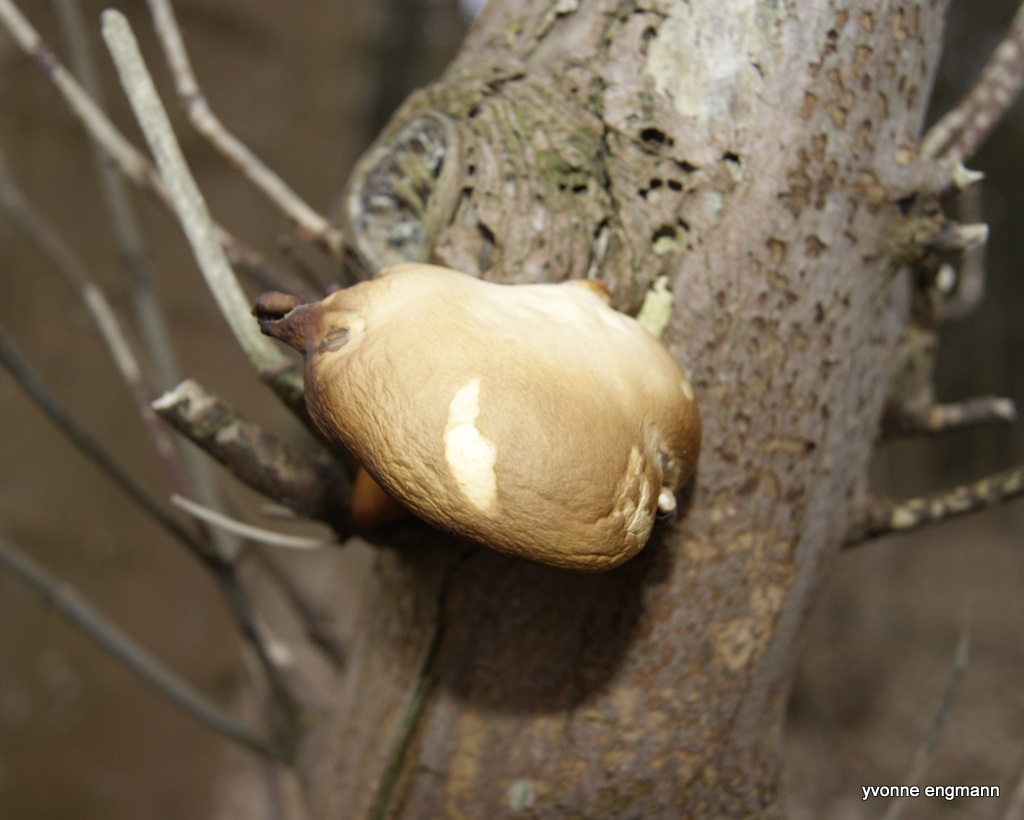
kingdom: Fungi
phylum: Basidiomycota
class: Agaricomycetes
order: Agaricales
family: Pleurotaceae
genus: Pleurotus
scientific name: Pleurotus ostreatus
